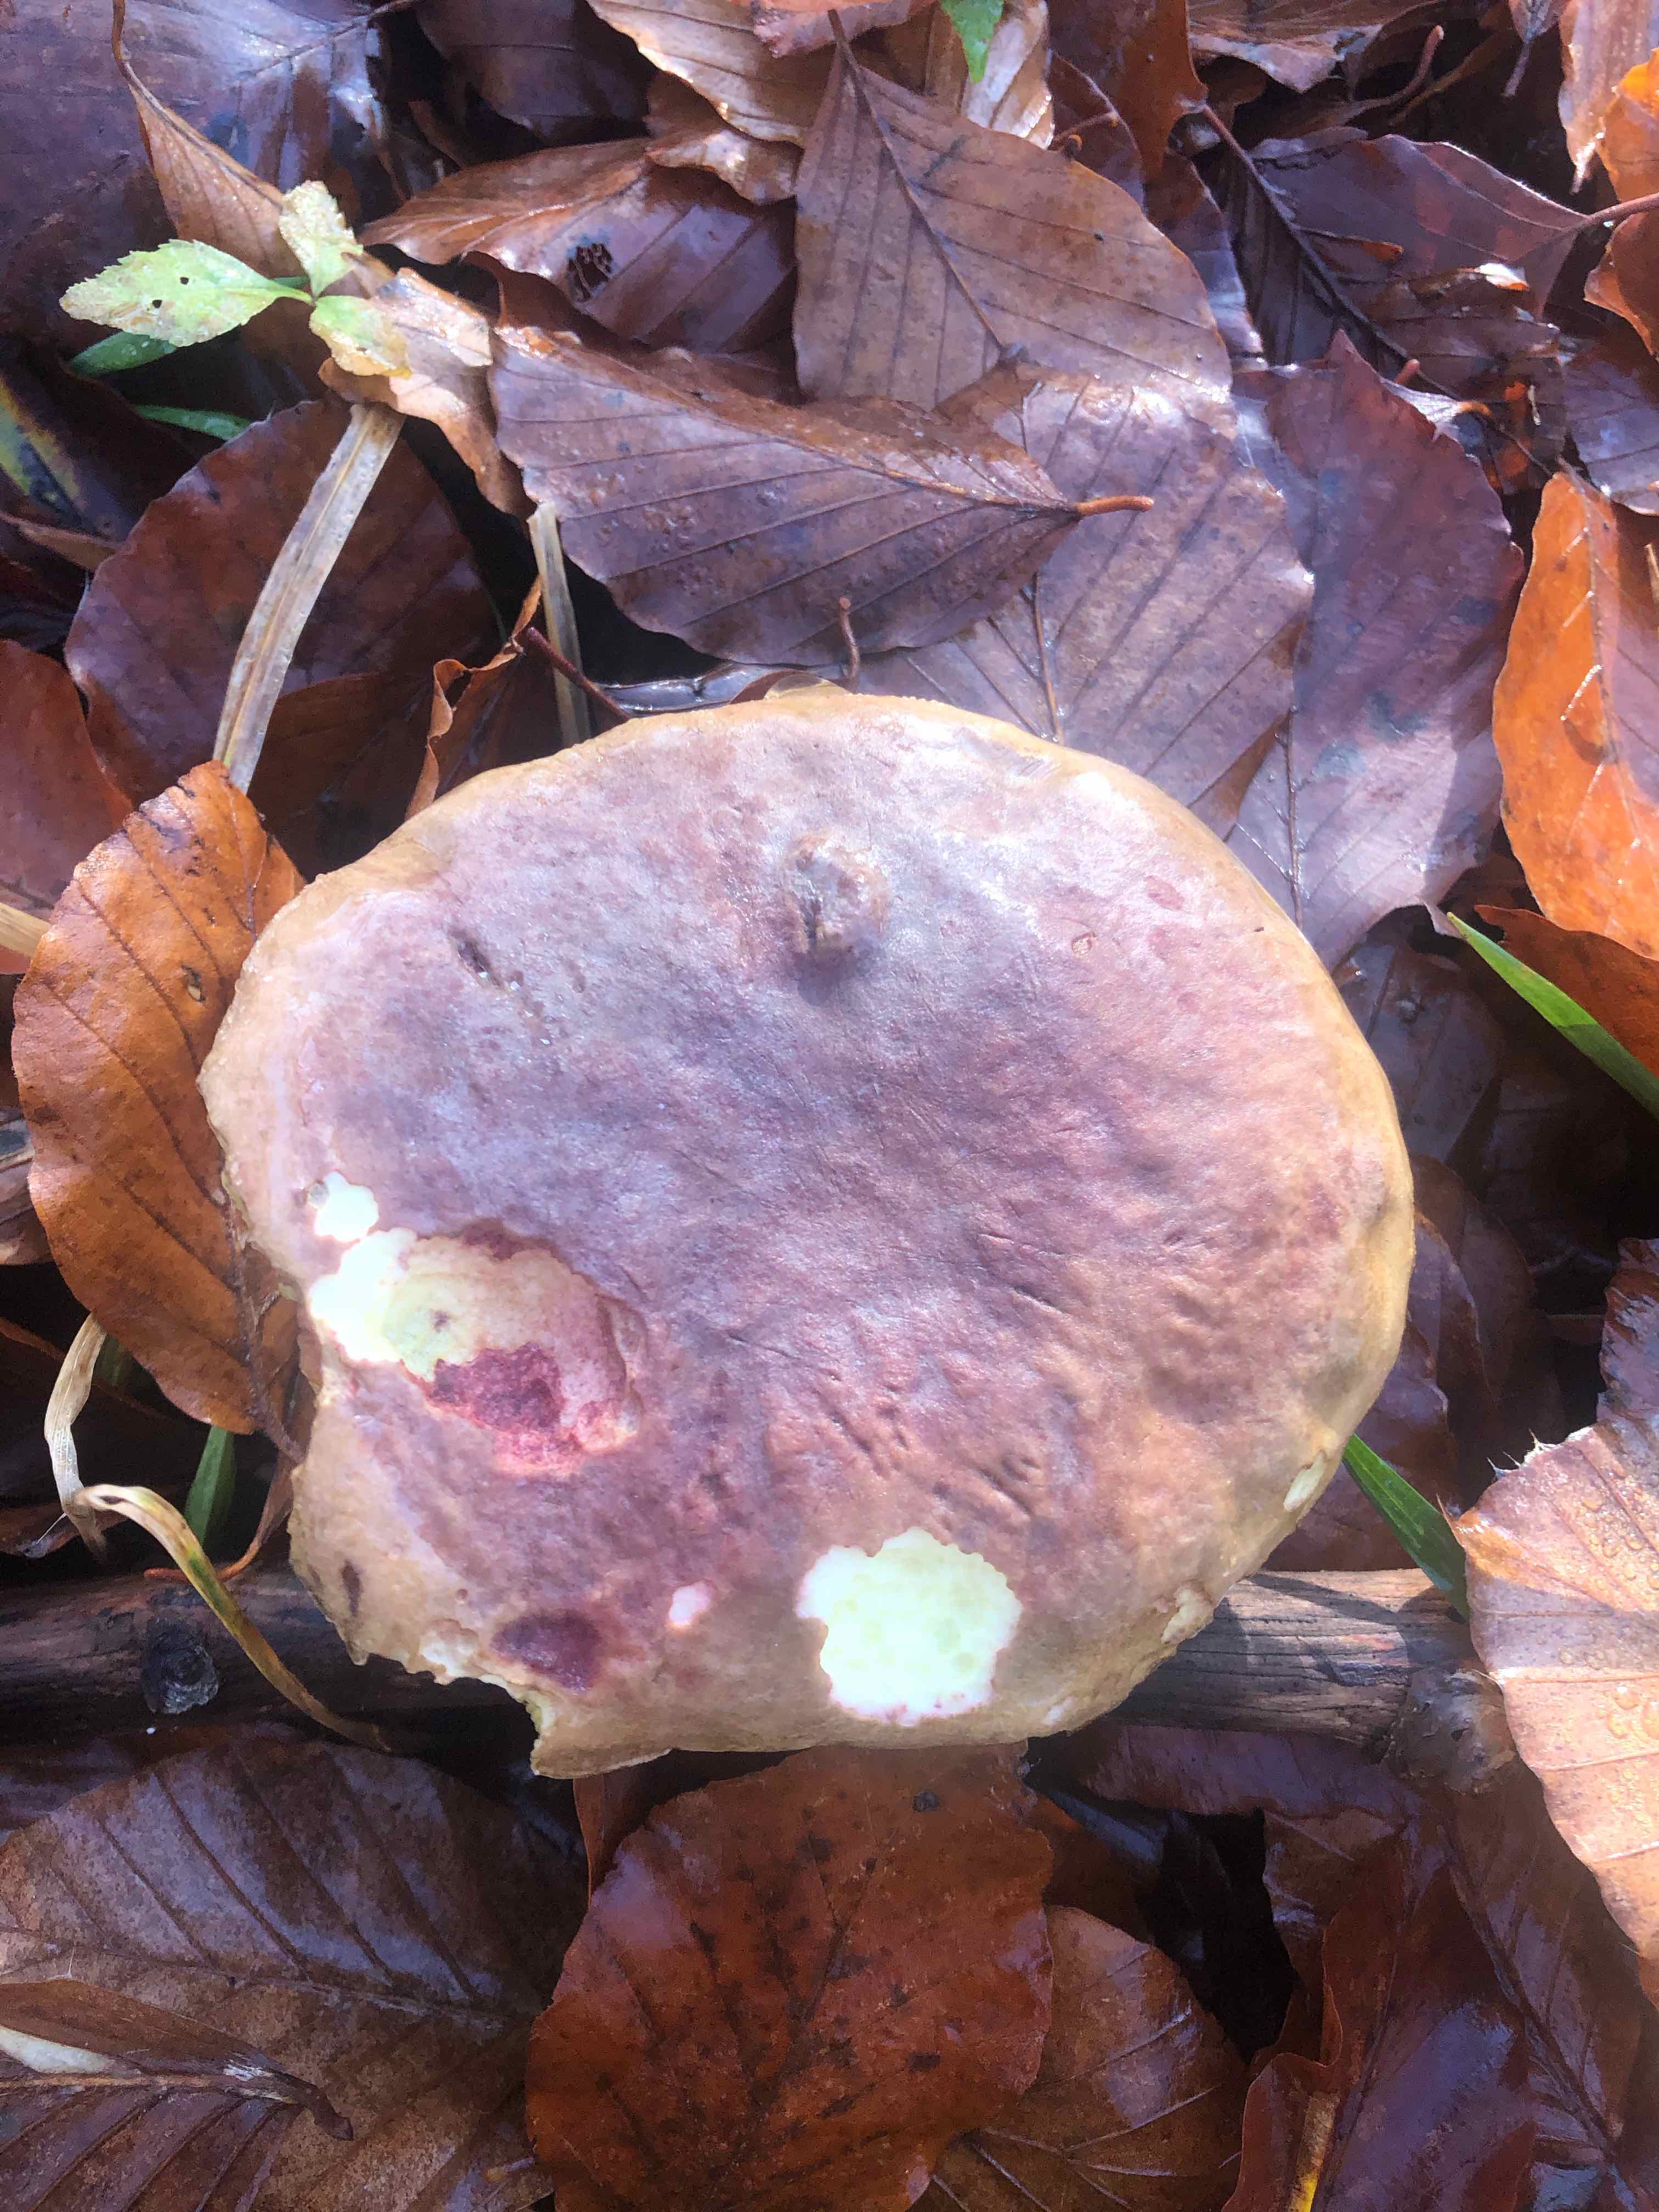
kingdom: Fungi
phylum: Basidiomycota
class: Agaricomycetes
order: Boletales
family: Boletaceae
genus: Xerocomellus
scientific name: Xerocomellus pruinatus
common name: dugget rørhat
